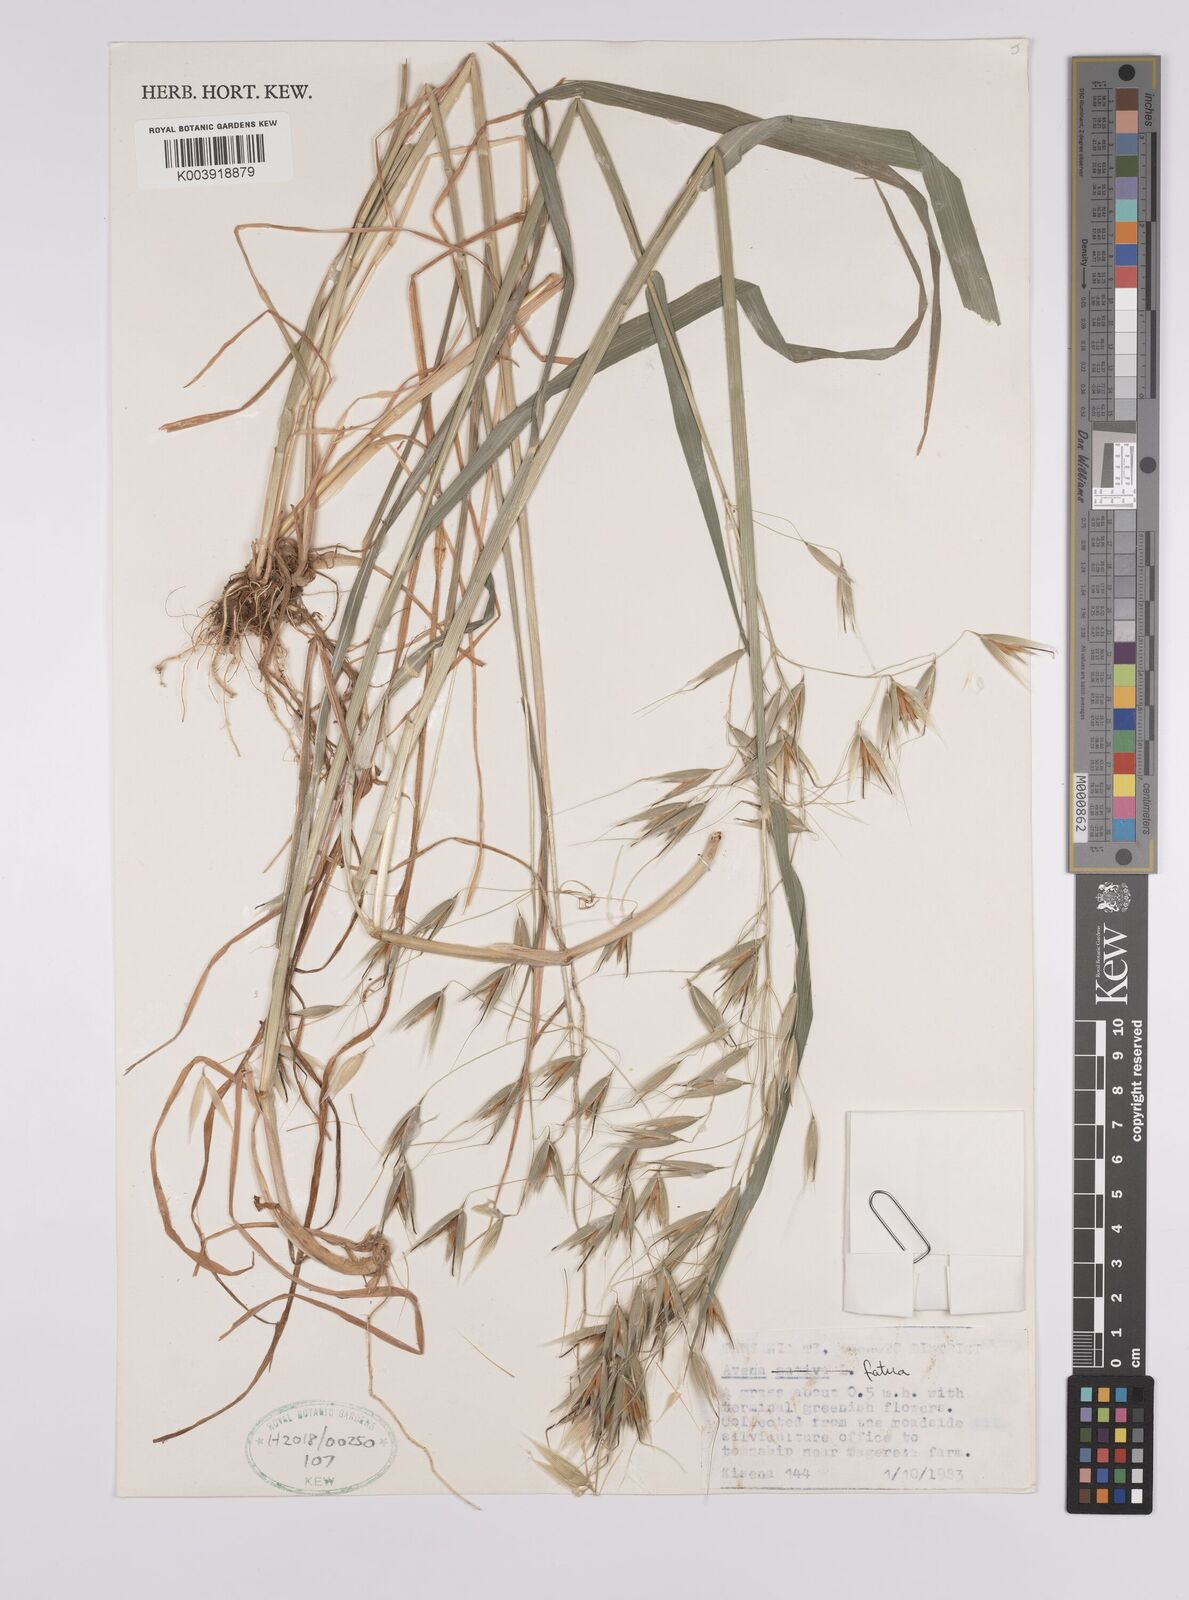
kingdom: Plantae
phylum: Tracheophyta
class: Liliopsida
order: Poales
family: Poaceae
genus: Avena
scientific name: Avena fatua
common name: Wild oat
